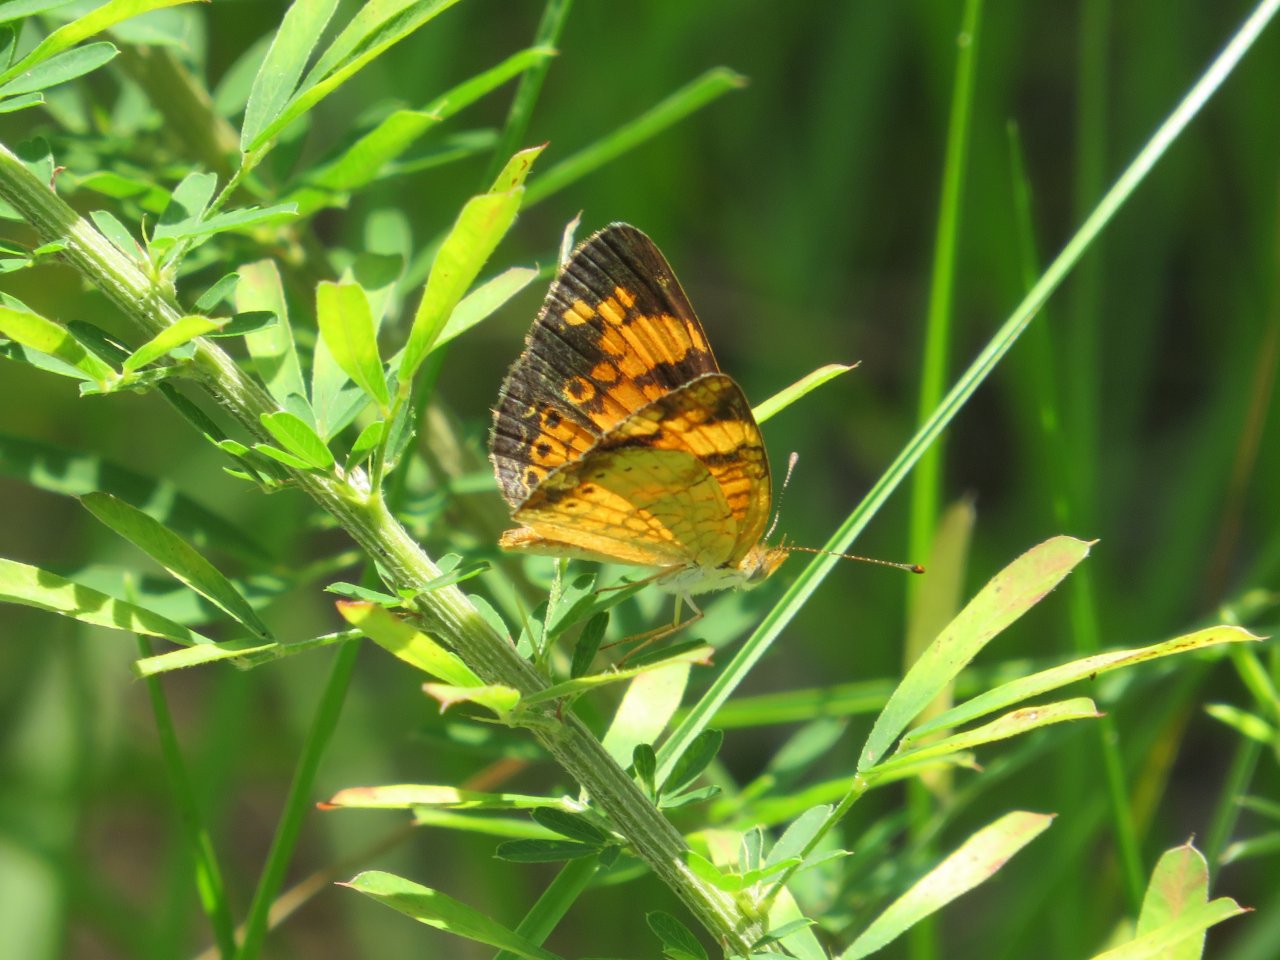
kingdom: Animalia
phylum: Arthropoda
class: Insecta
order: Lepidoptera
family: Nymphalidae
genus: Phyciodes
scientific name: Phyciodes tharos
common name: Pearl Crescent
